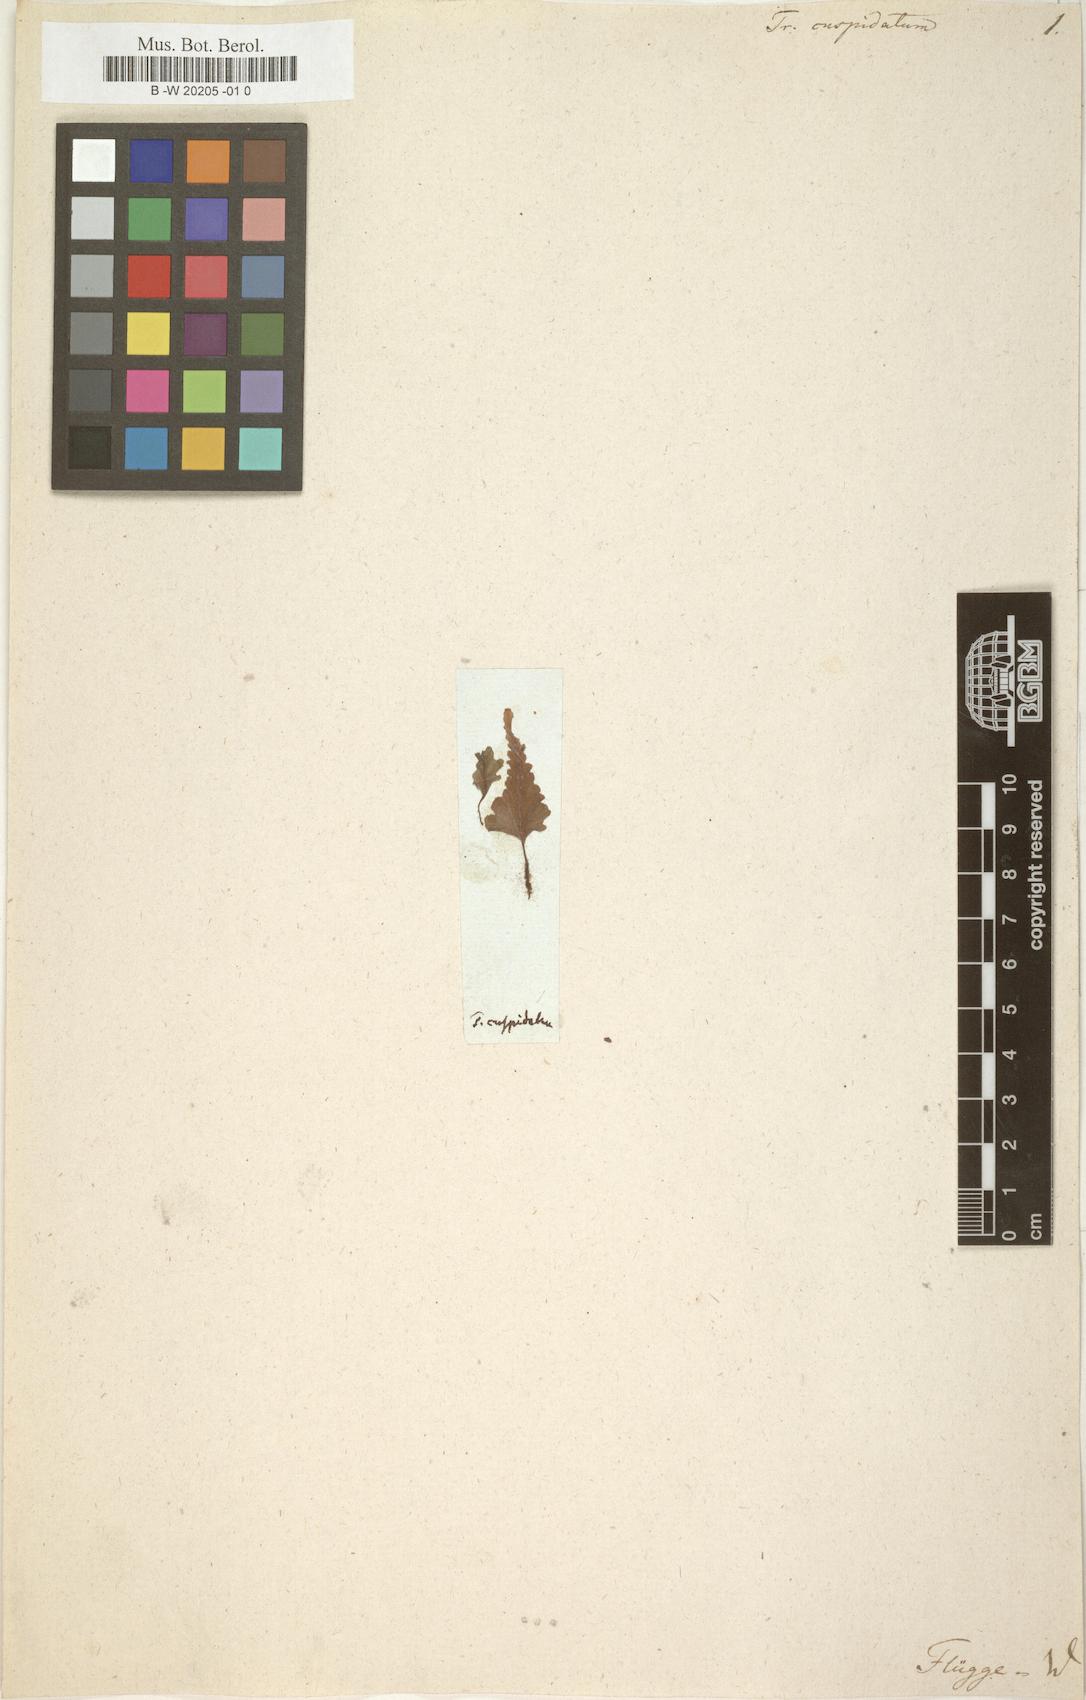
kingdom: Plantae
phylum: Tracheophyta
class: Polypodiopsida
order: Hymenophyllales
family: Hymenophyllaceae
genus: Didymoglossum
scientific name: Didymoglossum cuspidatum
